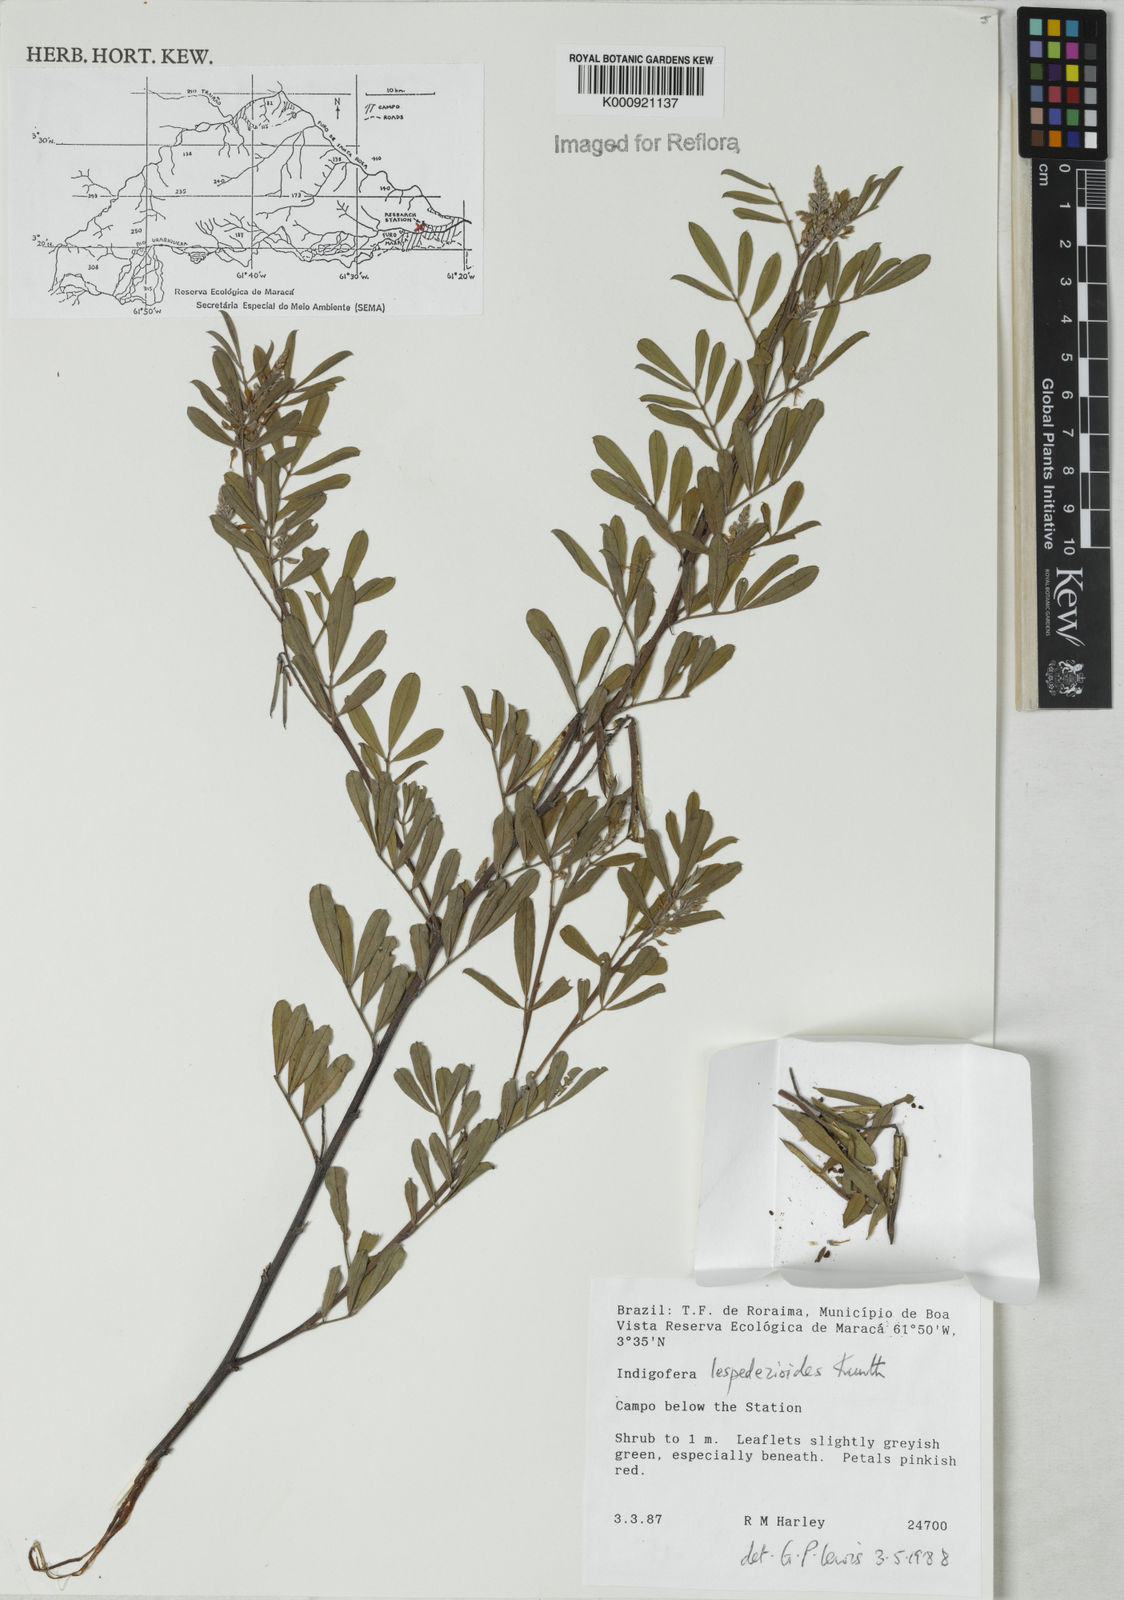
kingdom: Plantae
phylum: Tracheophyta
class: Magnoliopsida
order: Fabales
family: Fabaceae
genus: Indigofera
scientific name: Indigofera lespedezioides
